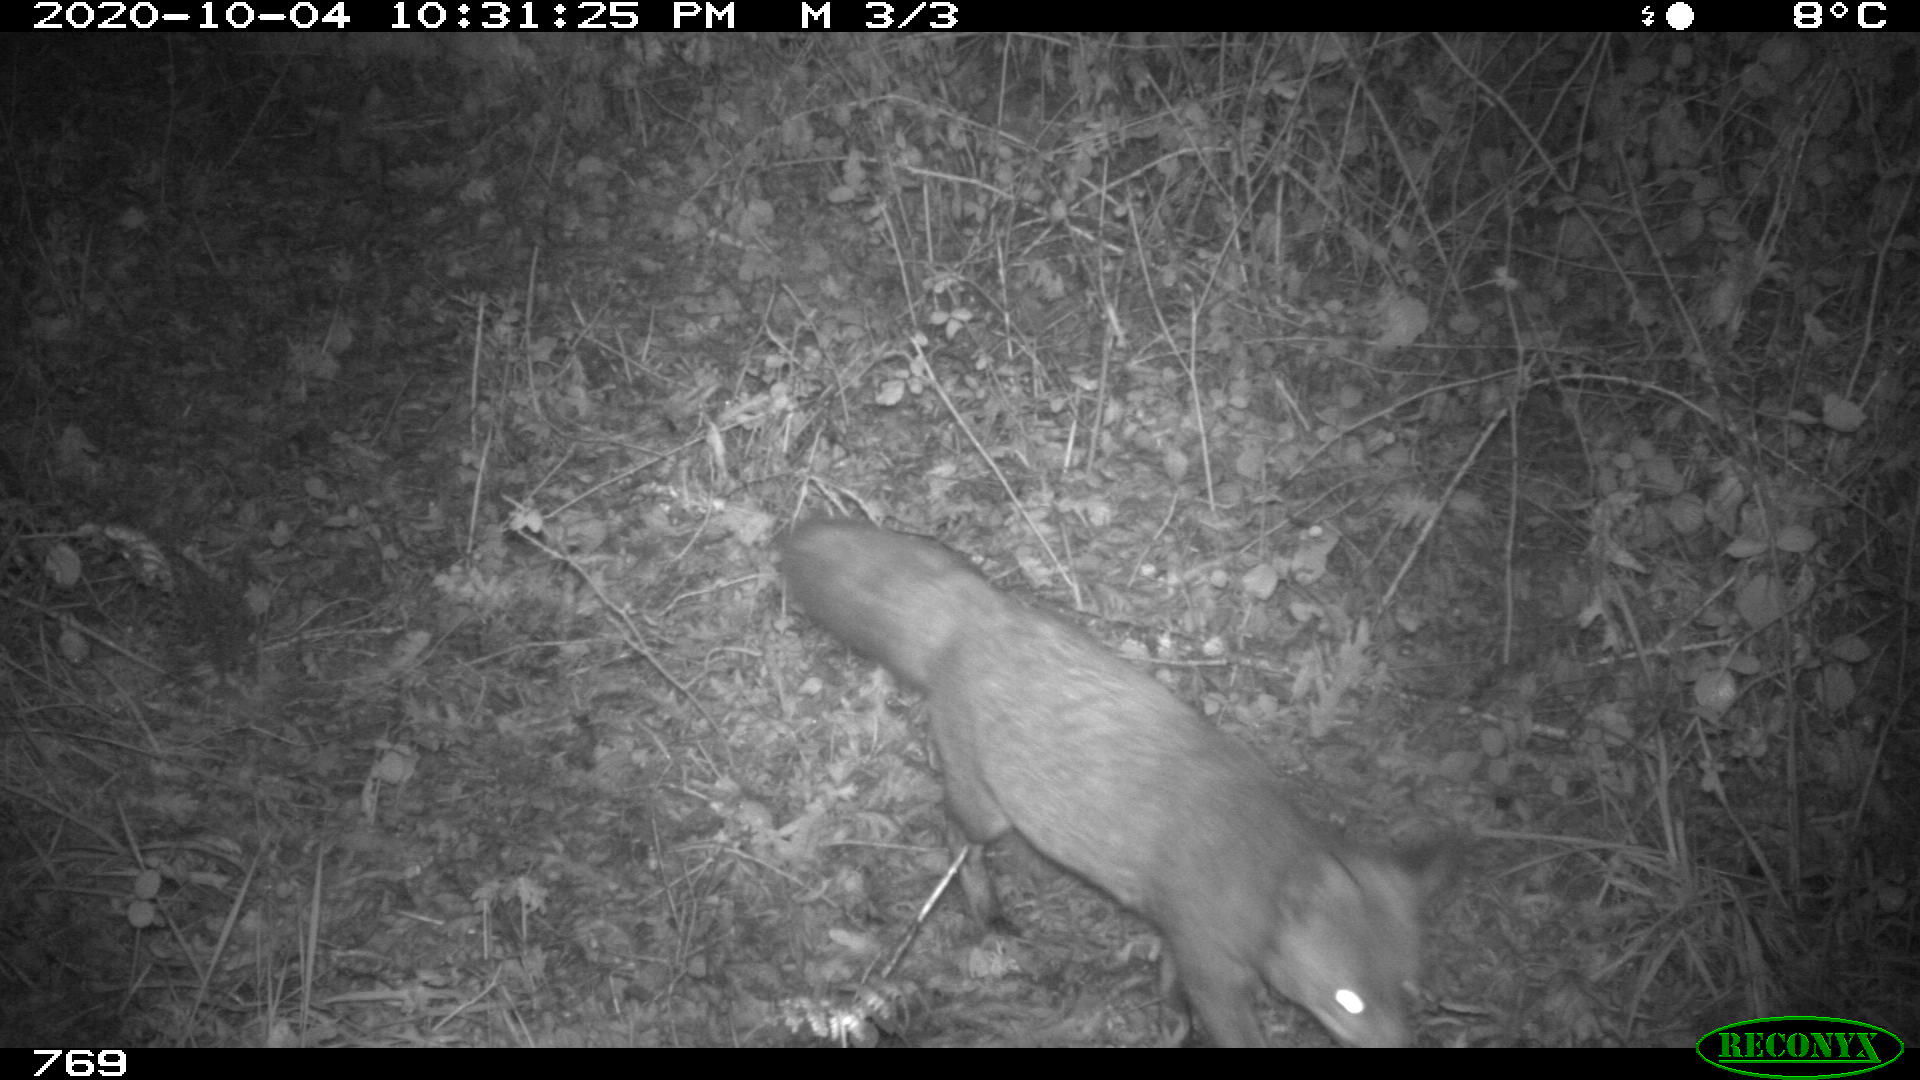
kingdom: Animalia
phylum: Chordata
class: Mammalia
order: Carnivora
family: Canidae
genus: Vulpes
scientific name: Vulpes vulpes
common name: Red fox
